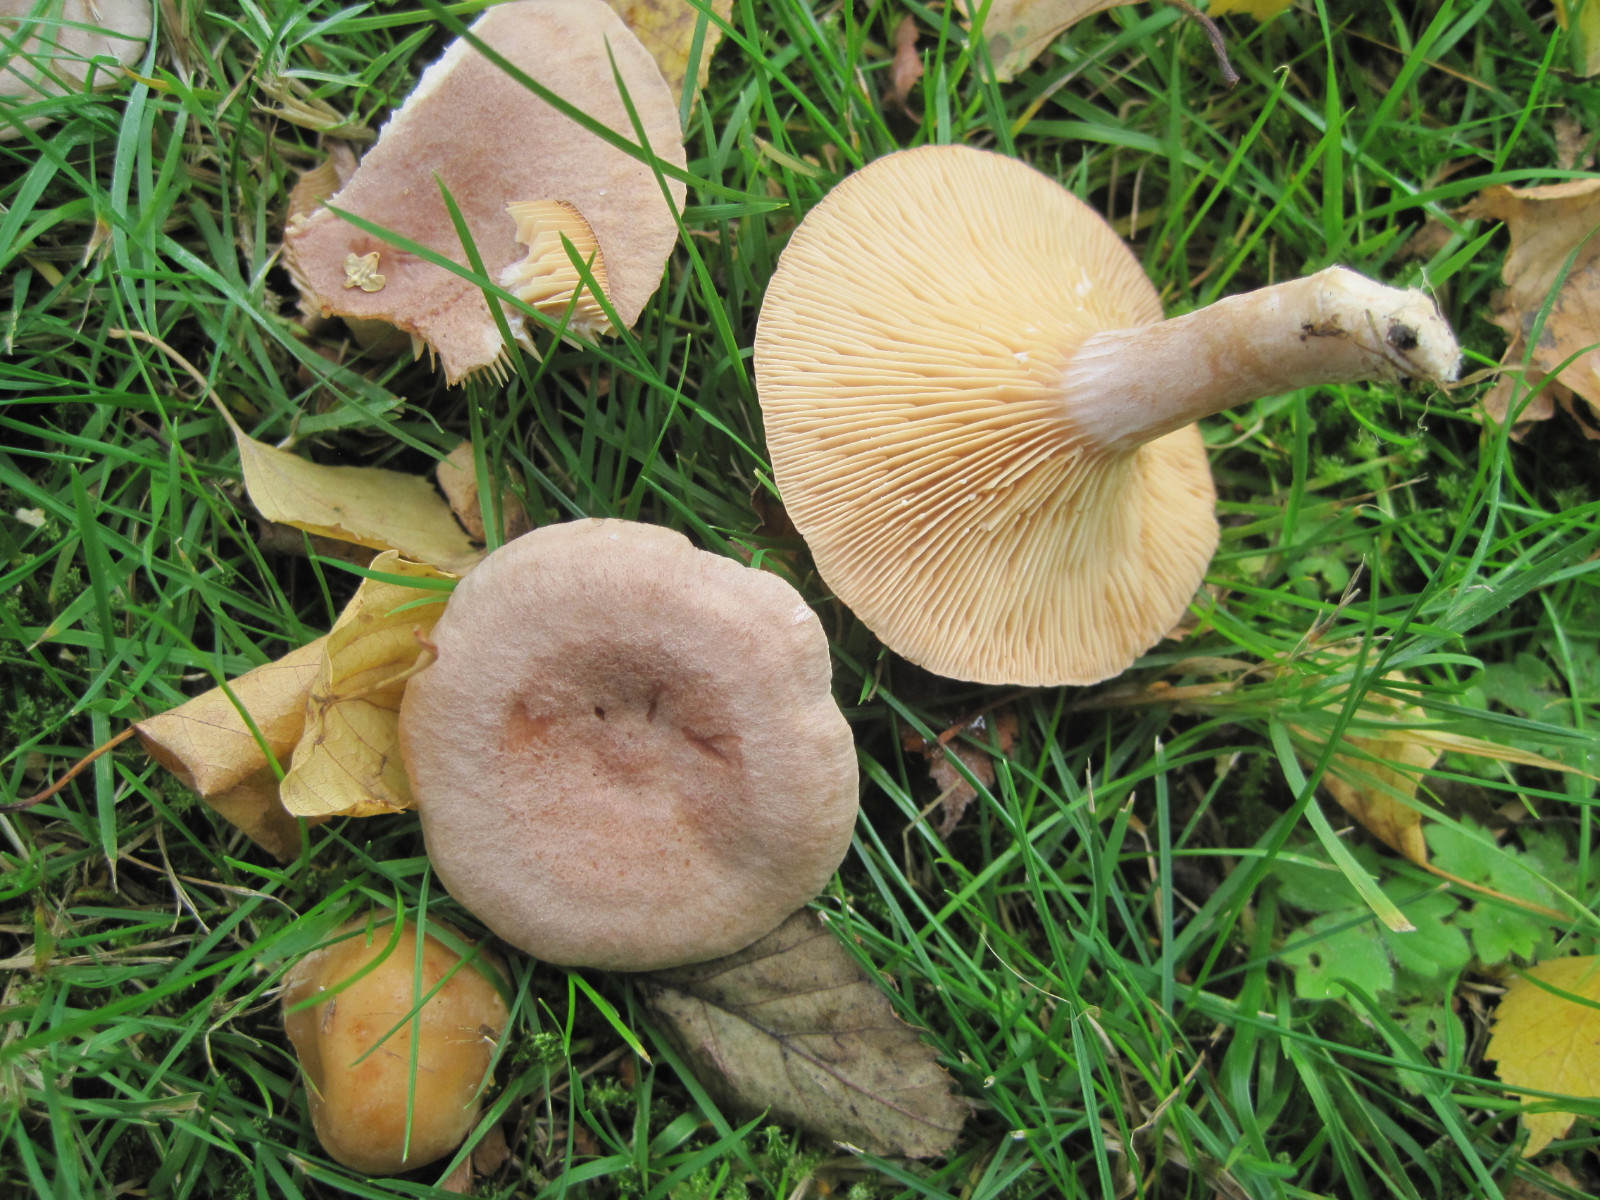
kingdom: Fungi
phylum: Basidiomycota
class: Agaricomycetes
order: Russulales
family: Russulaceae
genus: Lactarius
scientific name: Lactarius glyciosmus
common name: kokos-mælkehat
